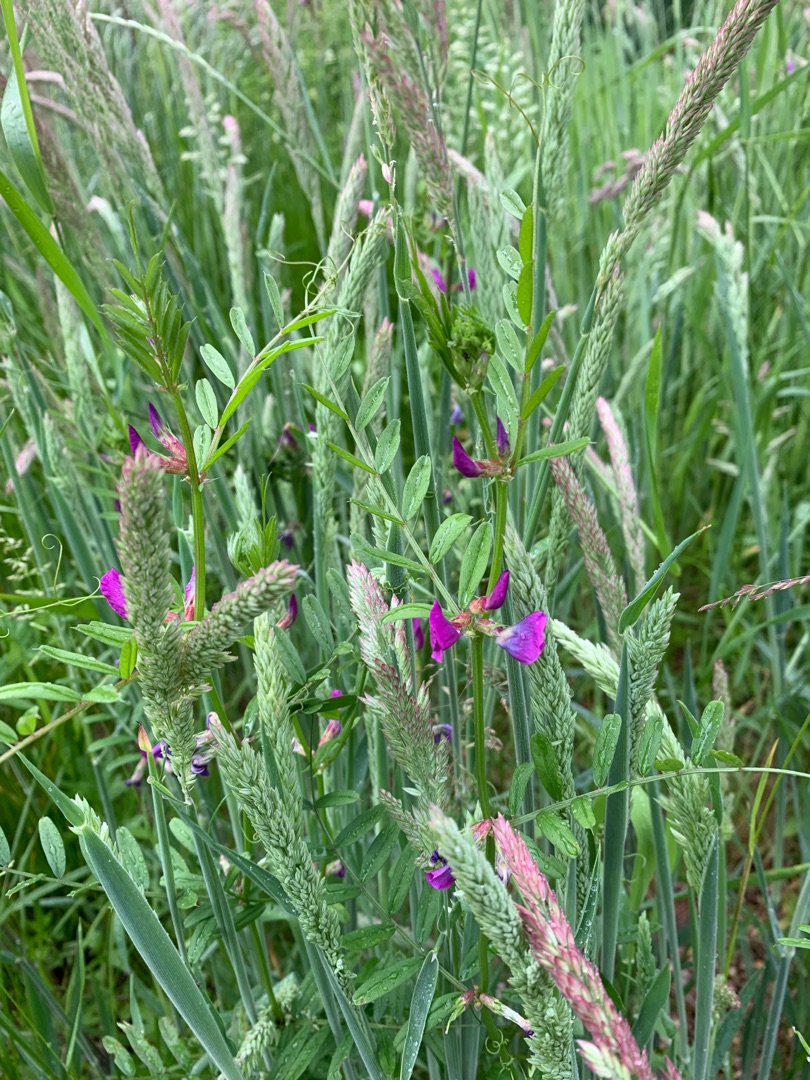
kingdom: Plantae
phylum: Tracheophyta
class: Magnoliopsida
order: Fabales
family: Fabaceae
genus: Vicia
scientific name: Vicia sativa
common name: Foder-vikke
